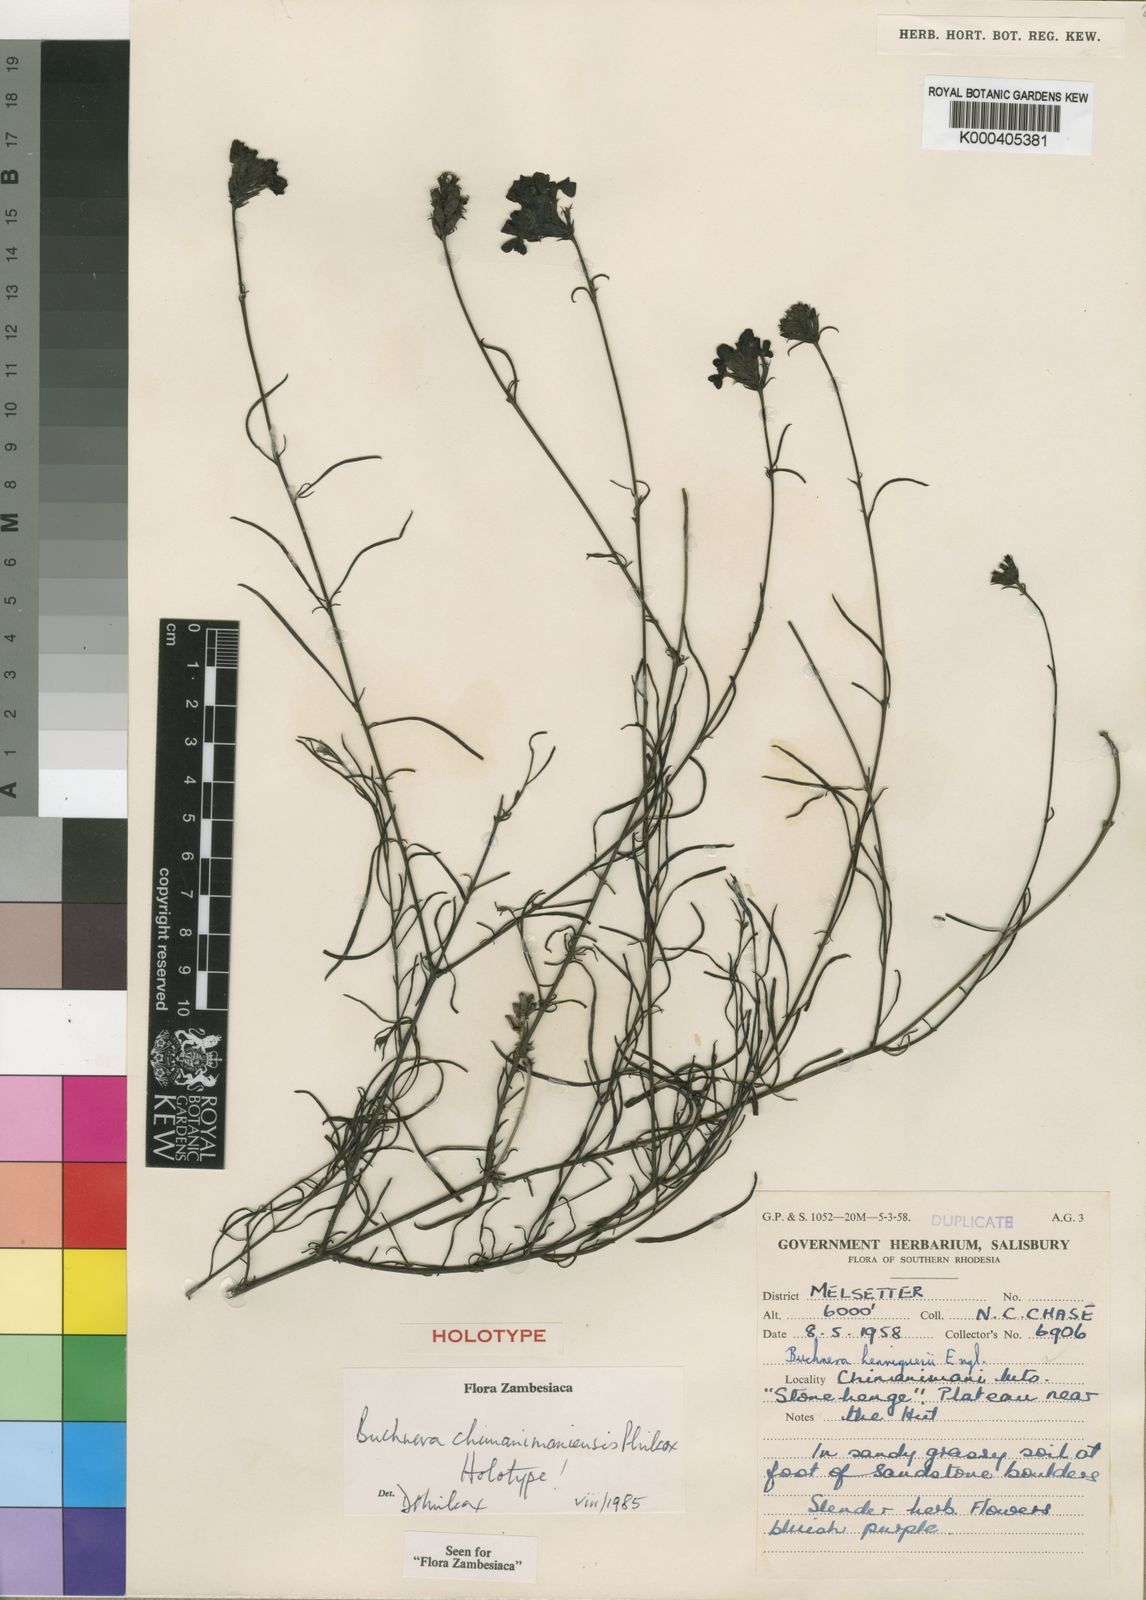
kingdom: Plantae
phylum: Tracheophyta
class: Magnoliopsida
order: Lamiales
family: Orobanchaceae
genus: Buchnera
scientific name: Buchnera chimanimaniensis
